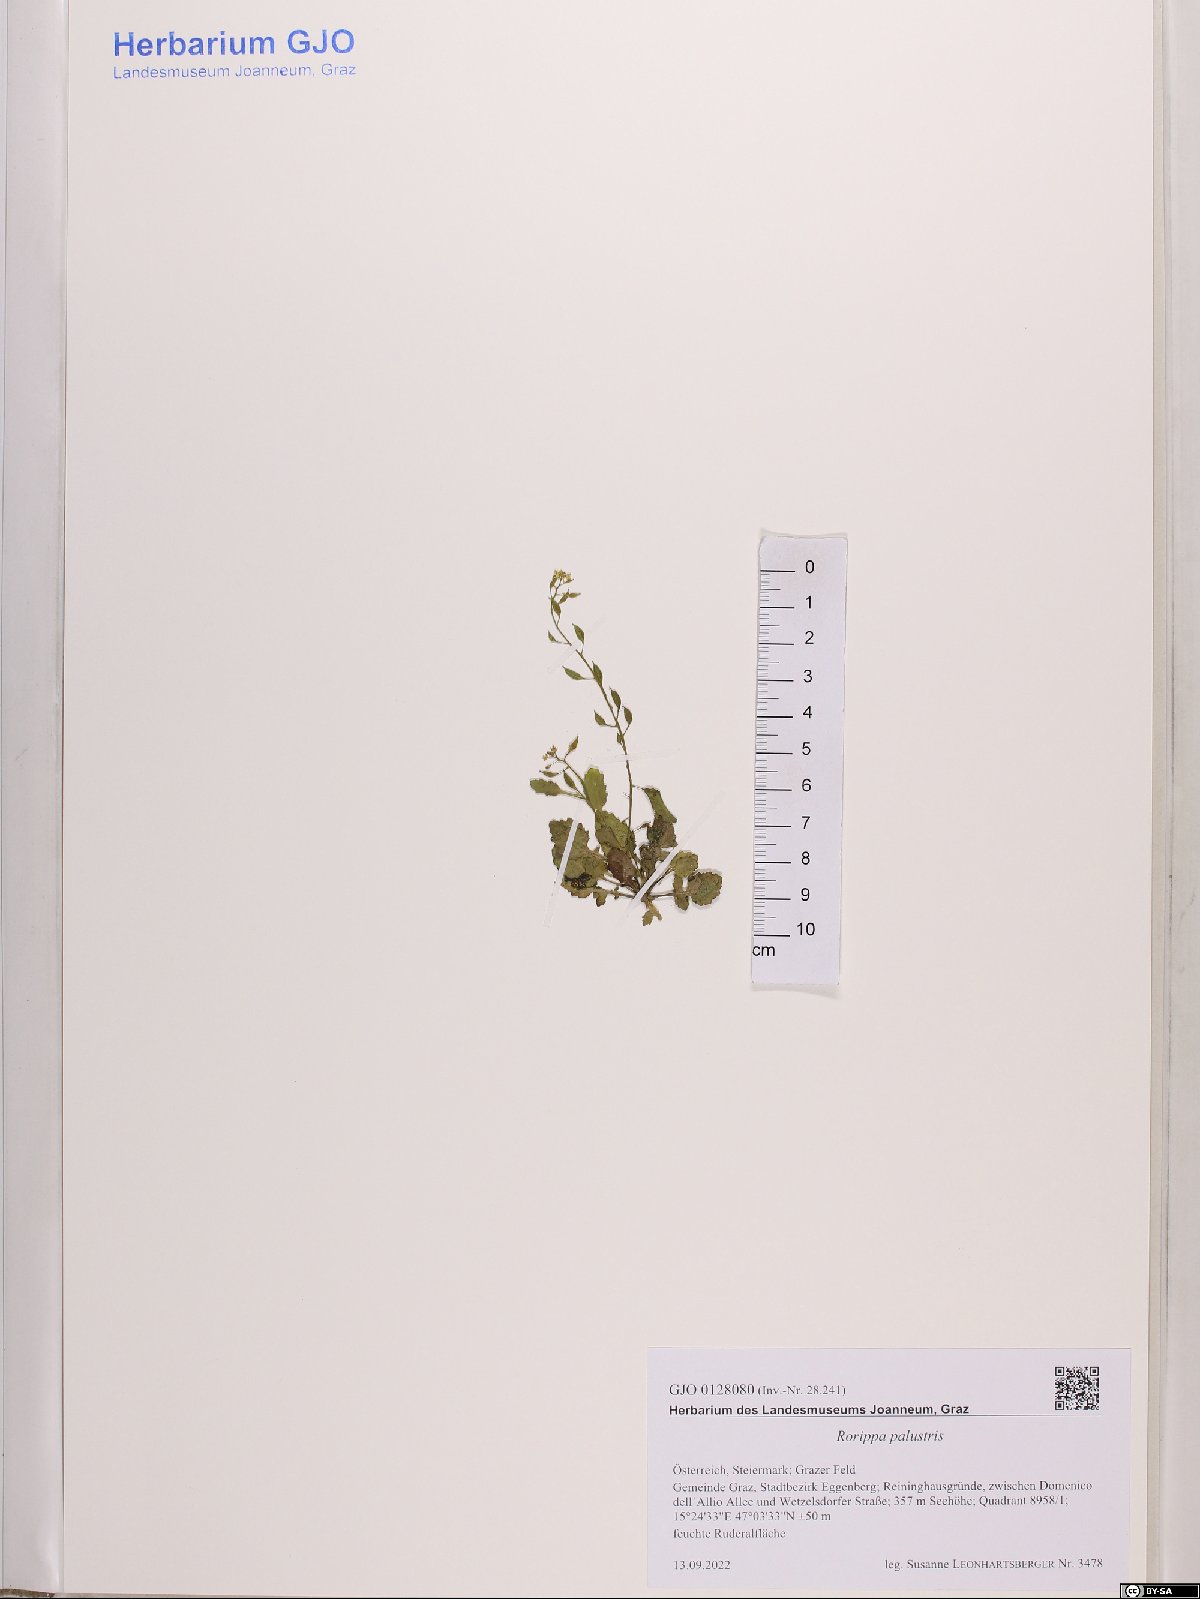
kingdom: Plantae
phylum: Tracheophyta
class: Magnoliopsida
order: Brassicales
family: Brassicaceae
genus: Rorippa
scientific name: Rorippa palustris
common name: Marsh yellow-cress
